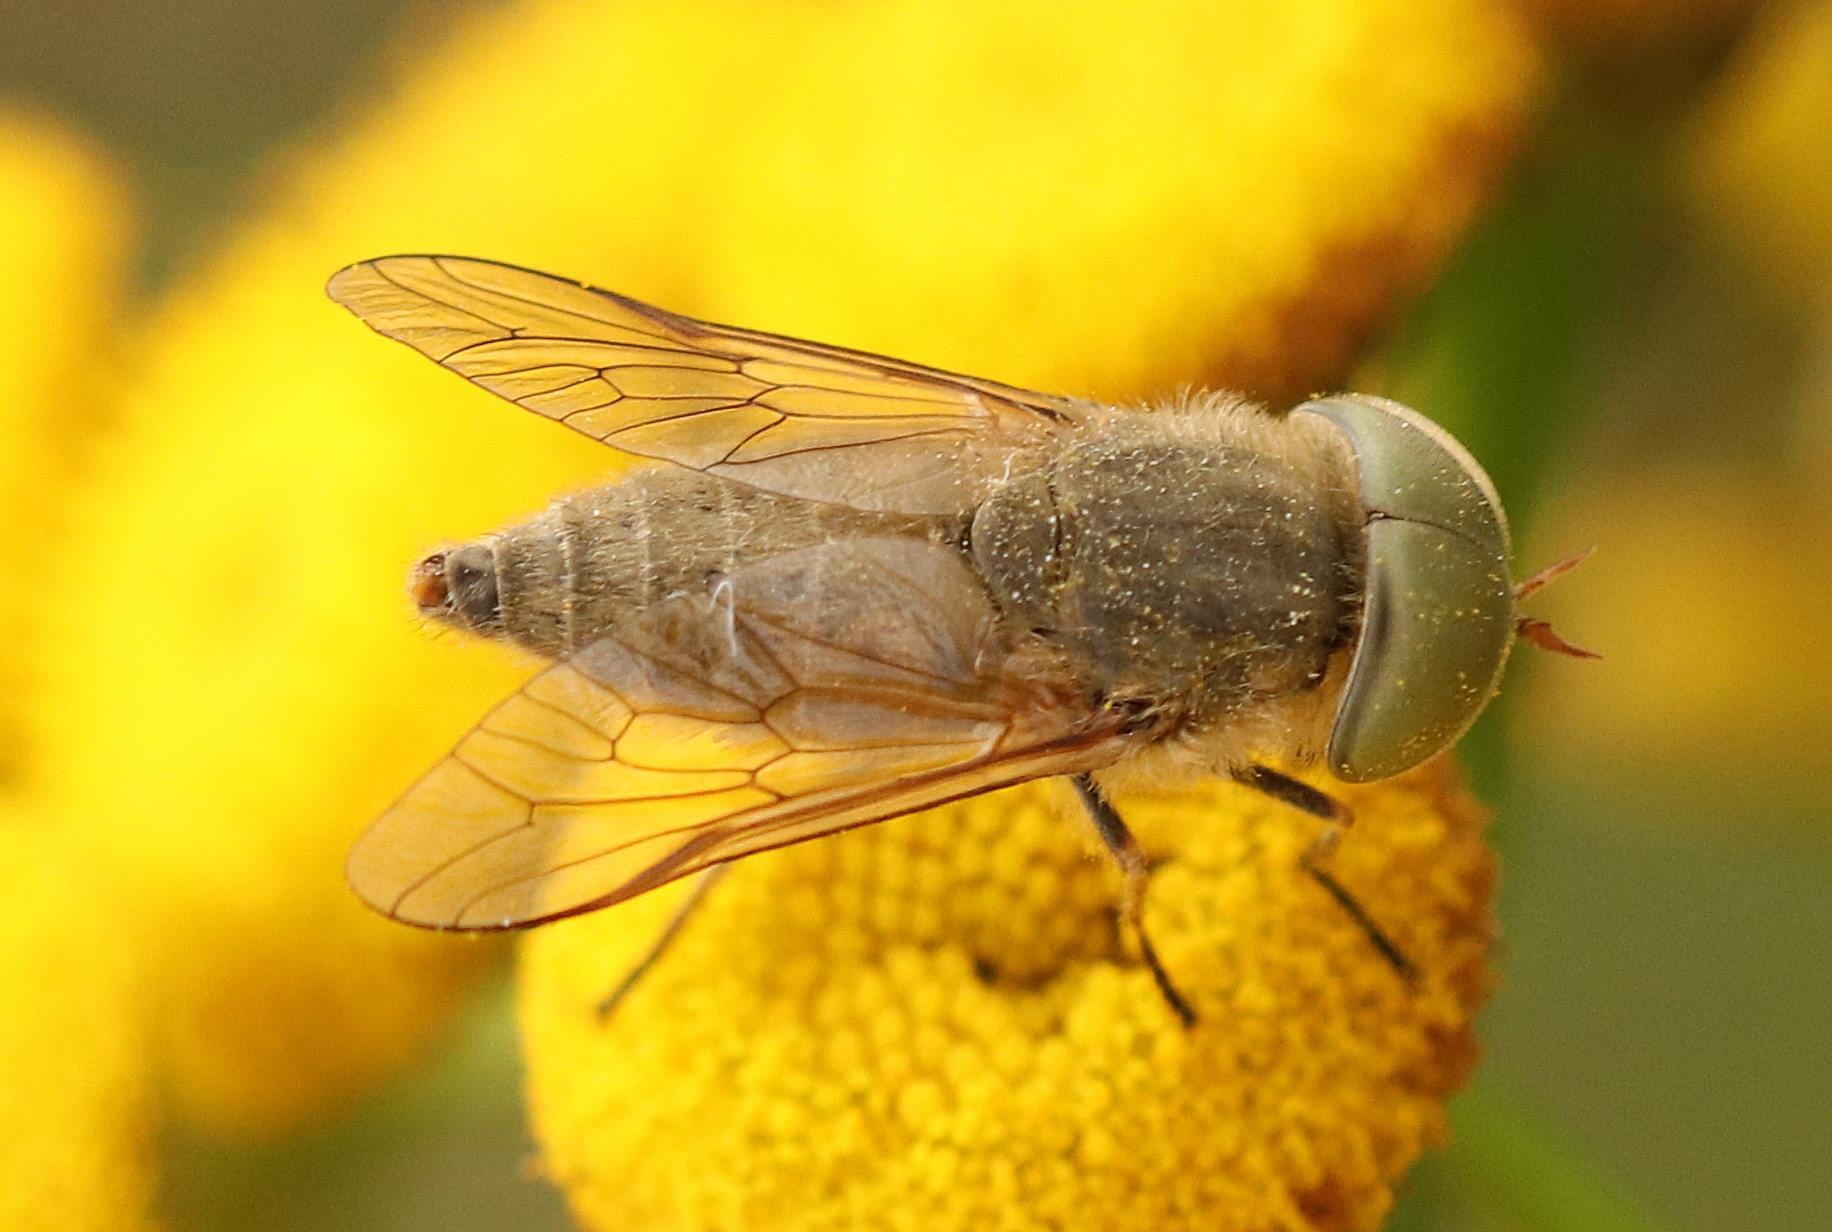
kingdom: Animalia
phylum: Arthropoda
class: Insecta
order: Diptera
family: Tabanidae
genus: Atylotus
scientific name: Atylotus rusticus
